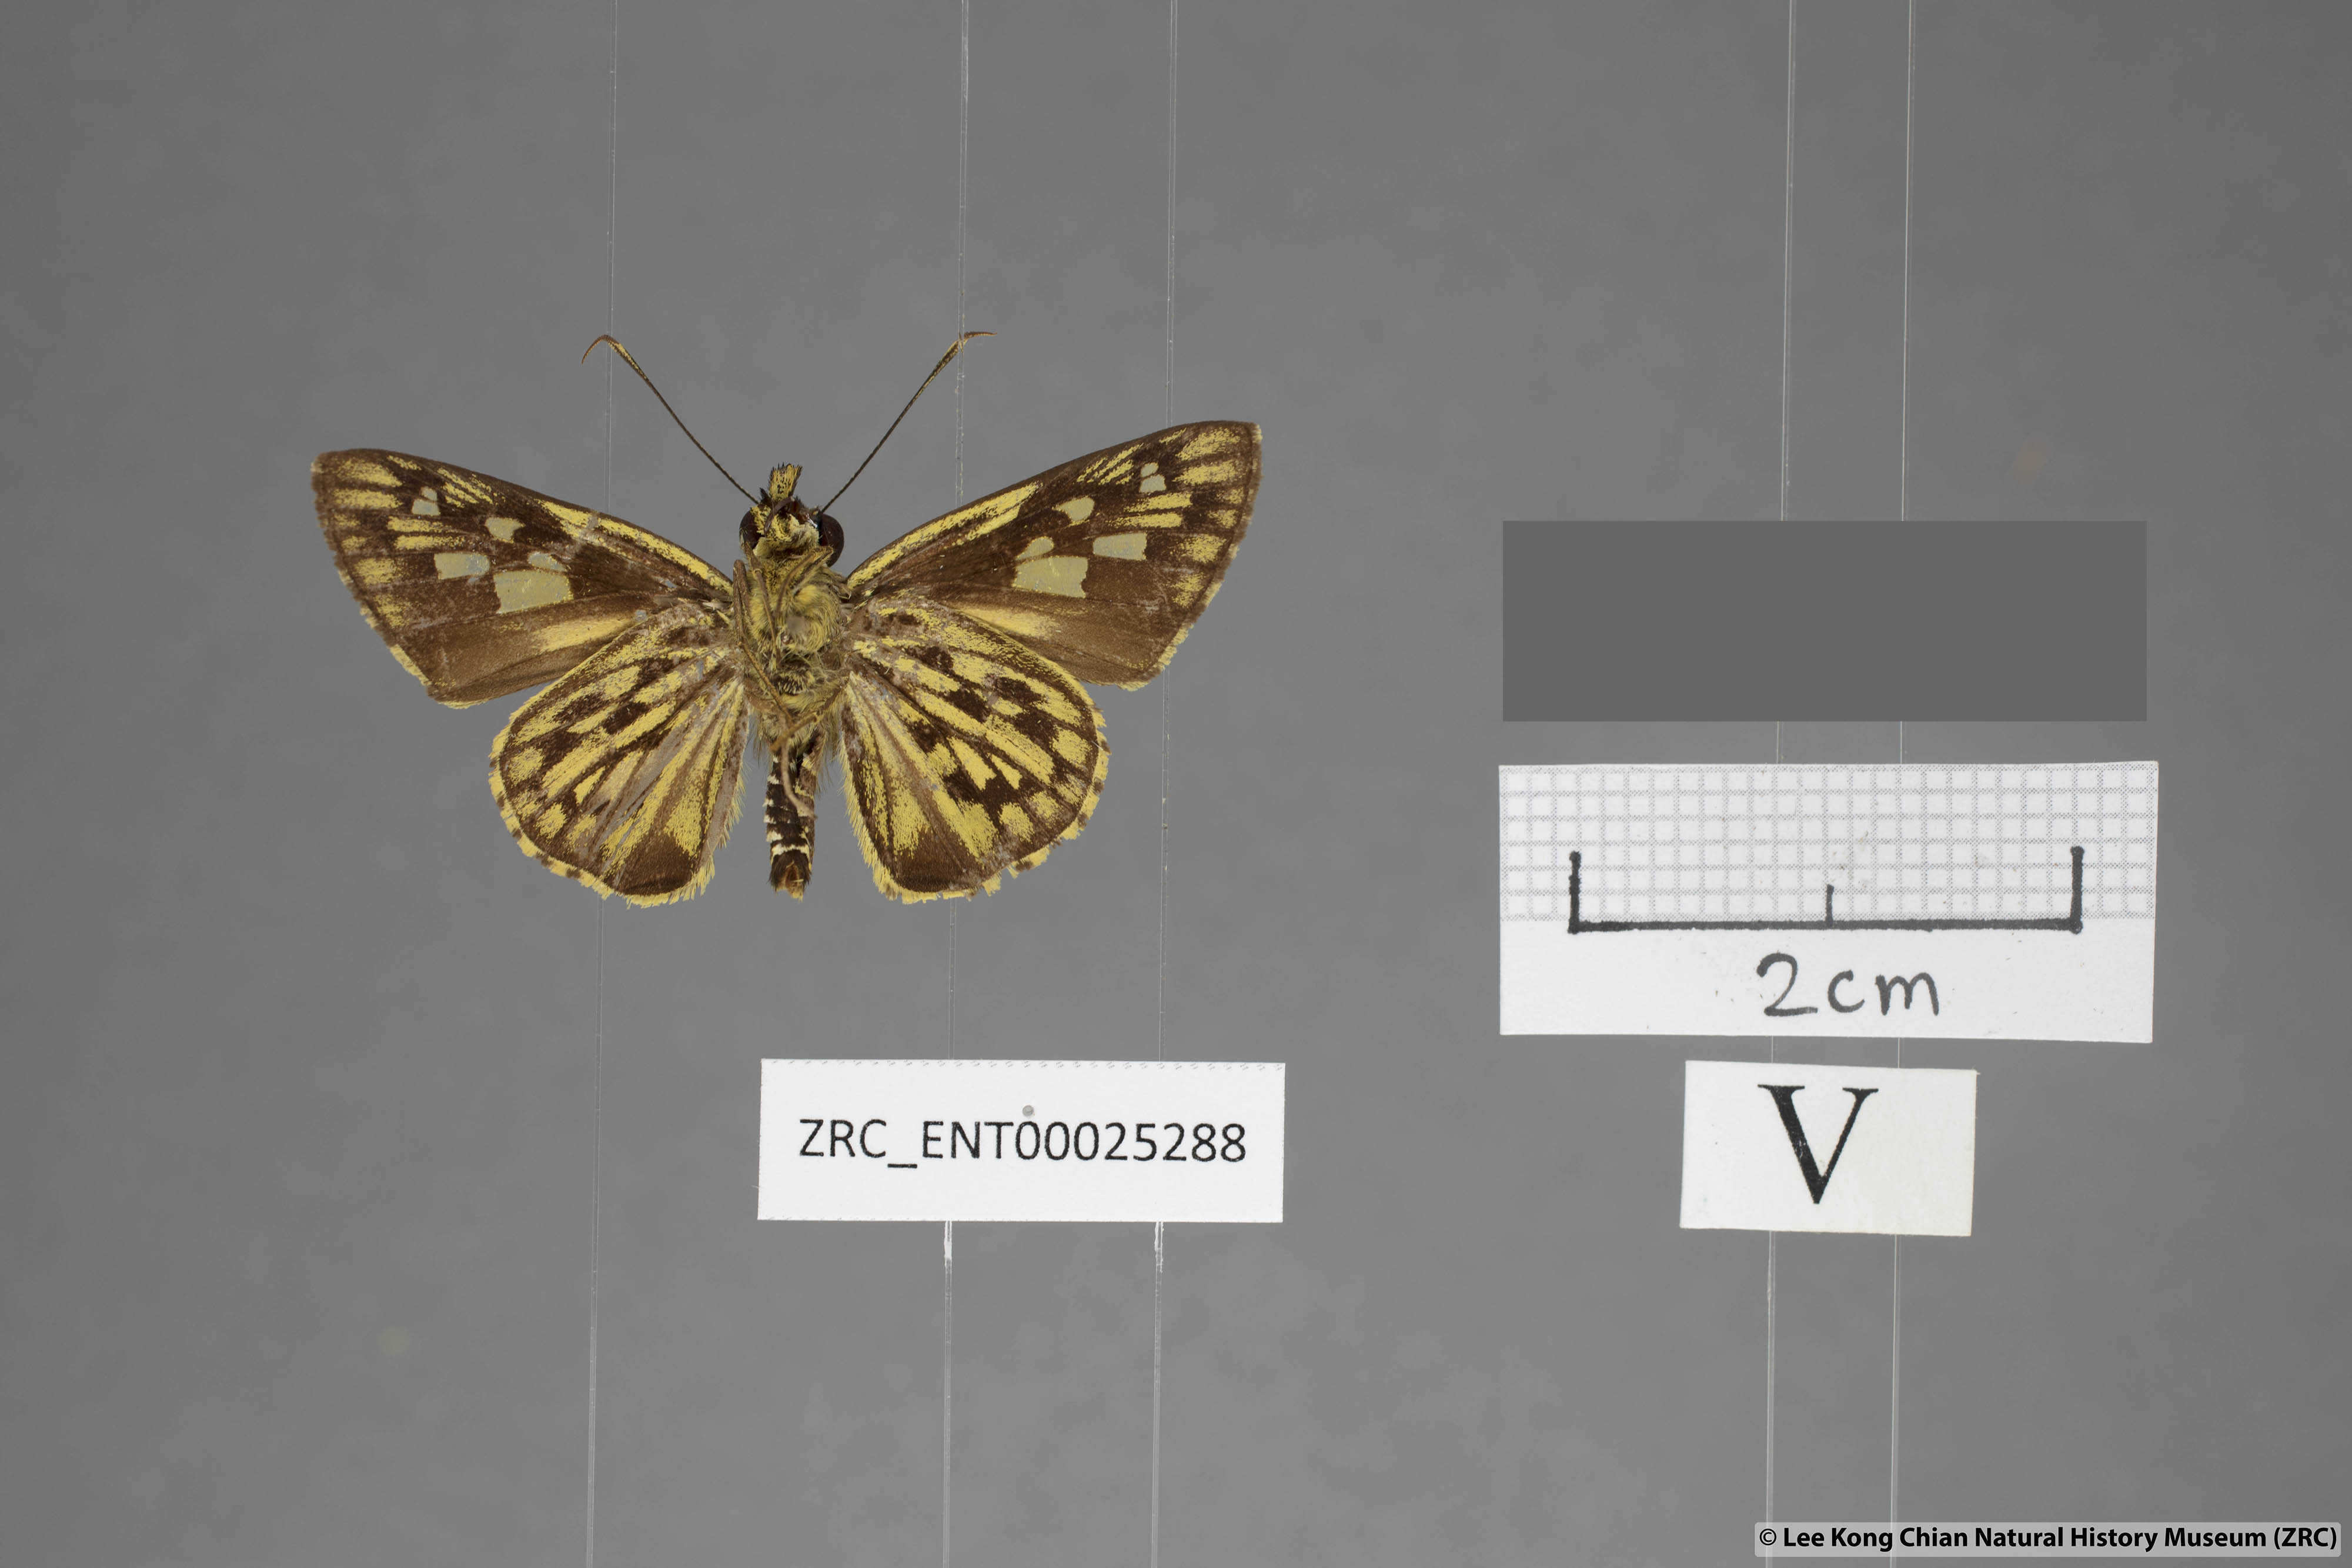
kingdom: Animalia
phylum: Arthropoda
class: Insecta
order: Lepidoptera
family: Hesperiidae
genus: Plastingia
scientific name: Plastingia pellonia
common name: Yellow chequered lancer
